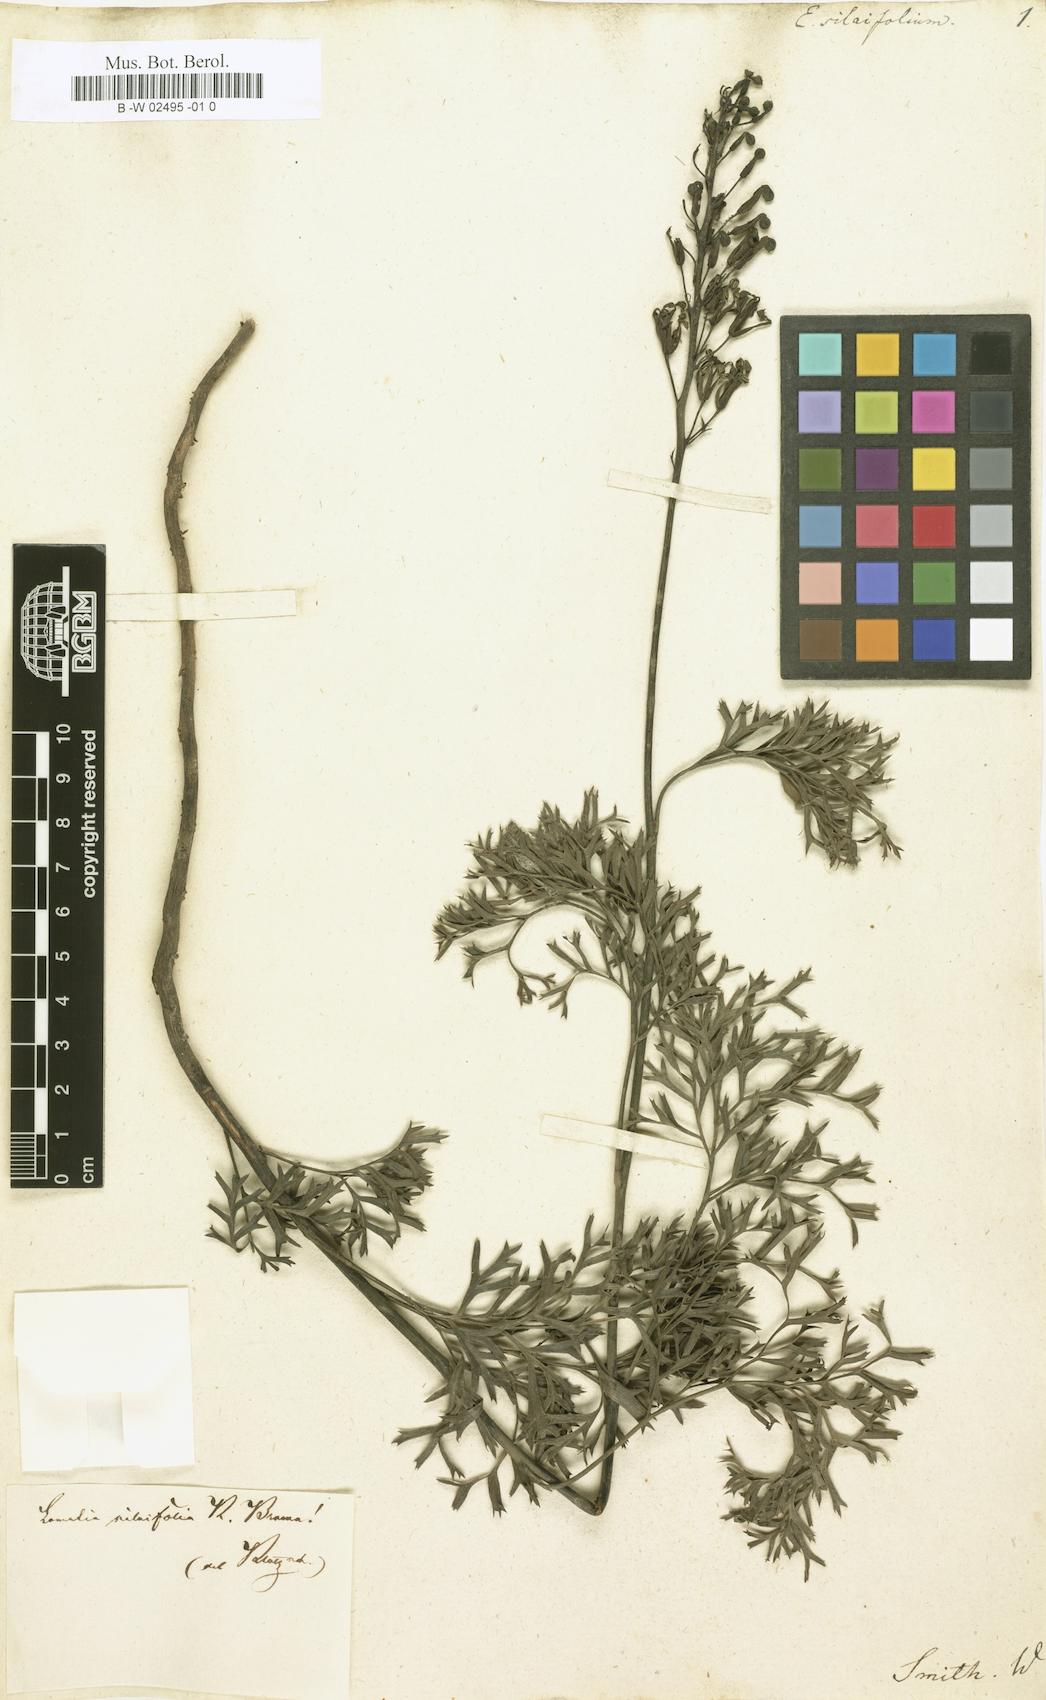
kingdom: Plantae
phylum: Tracheophyta
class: Magnoliopsida
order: Proteales
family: Proteaceae
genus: Lomatia
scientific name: Lomatia silaifolia
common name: Crinklebush
